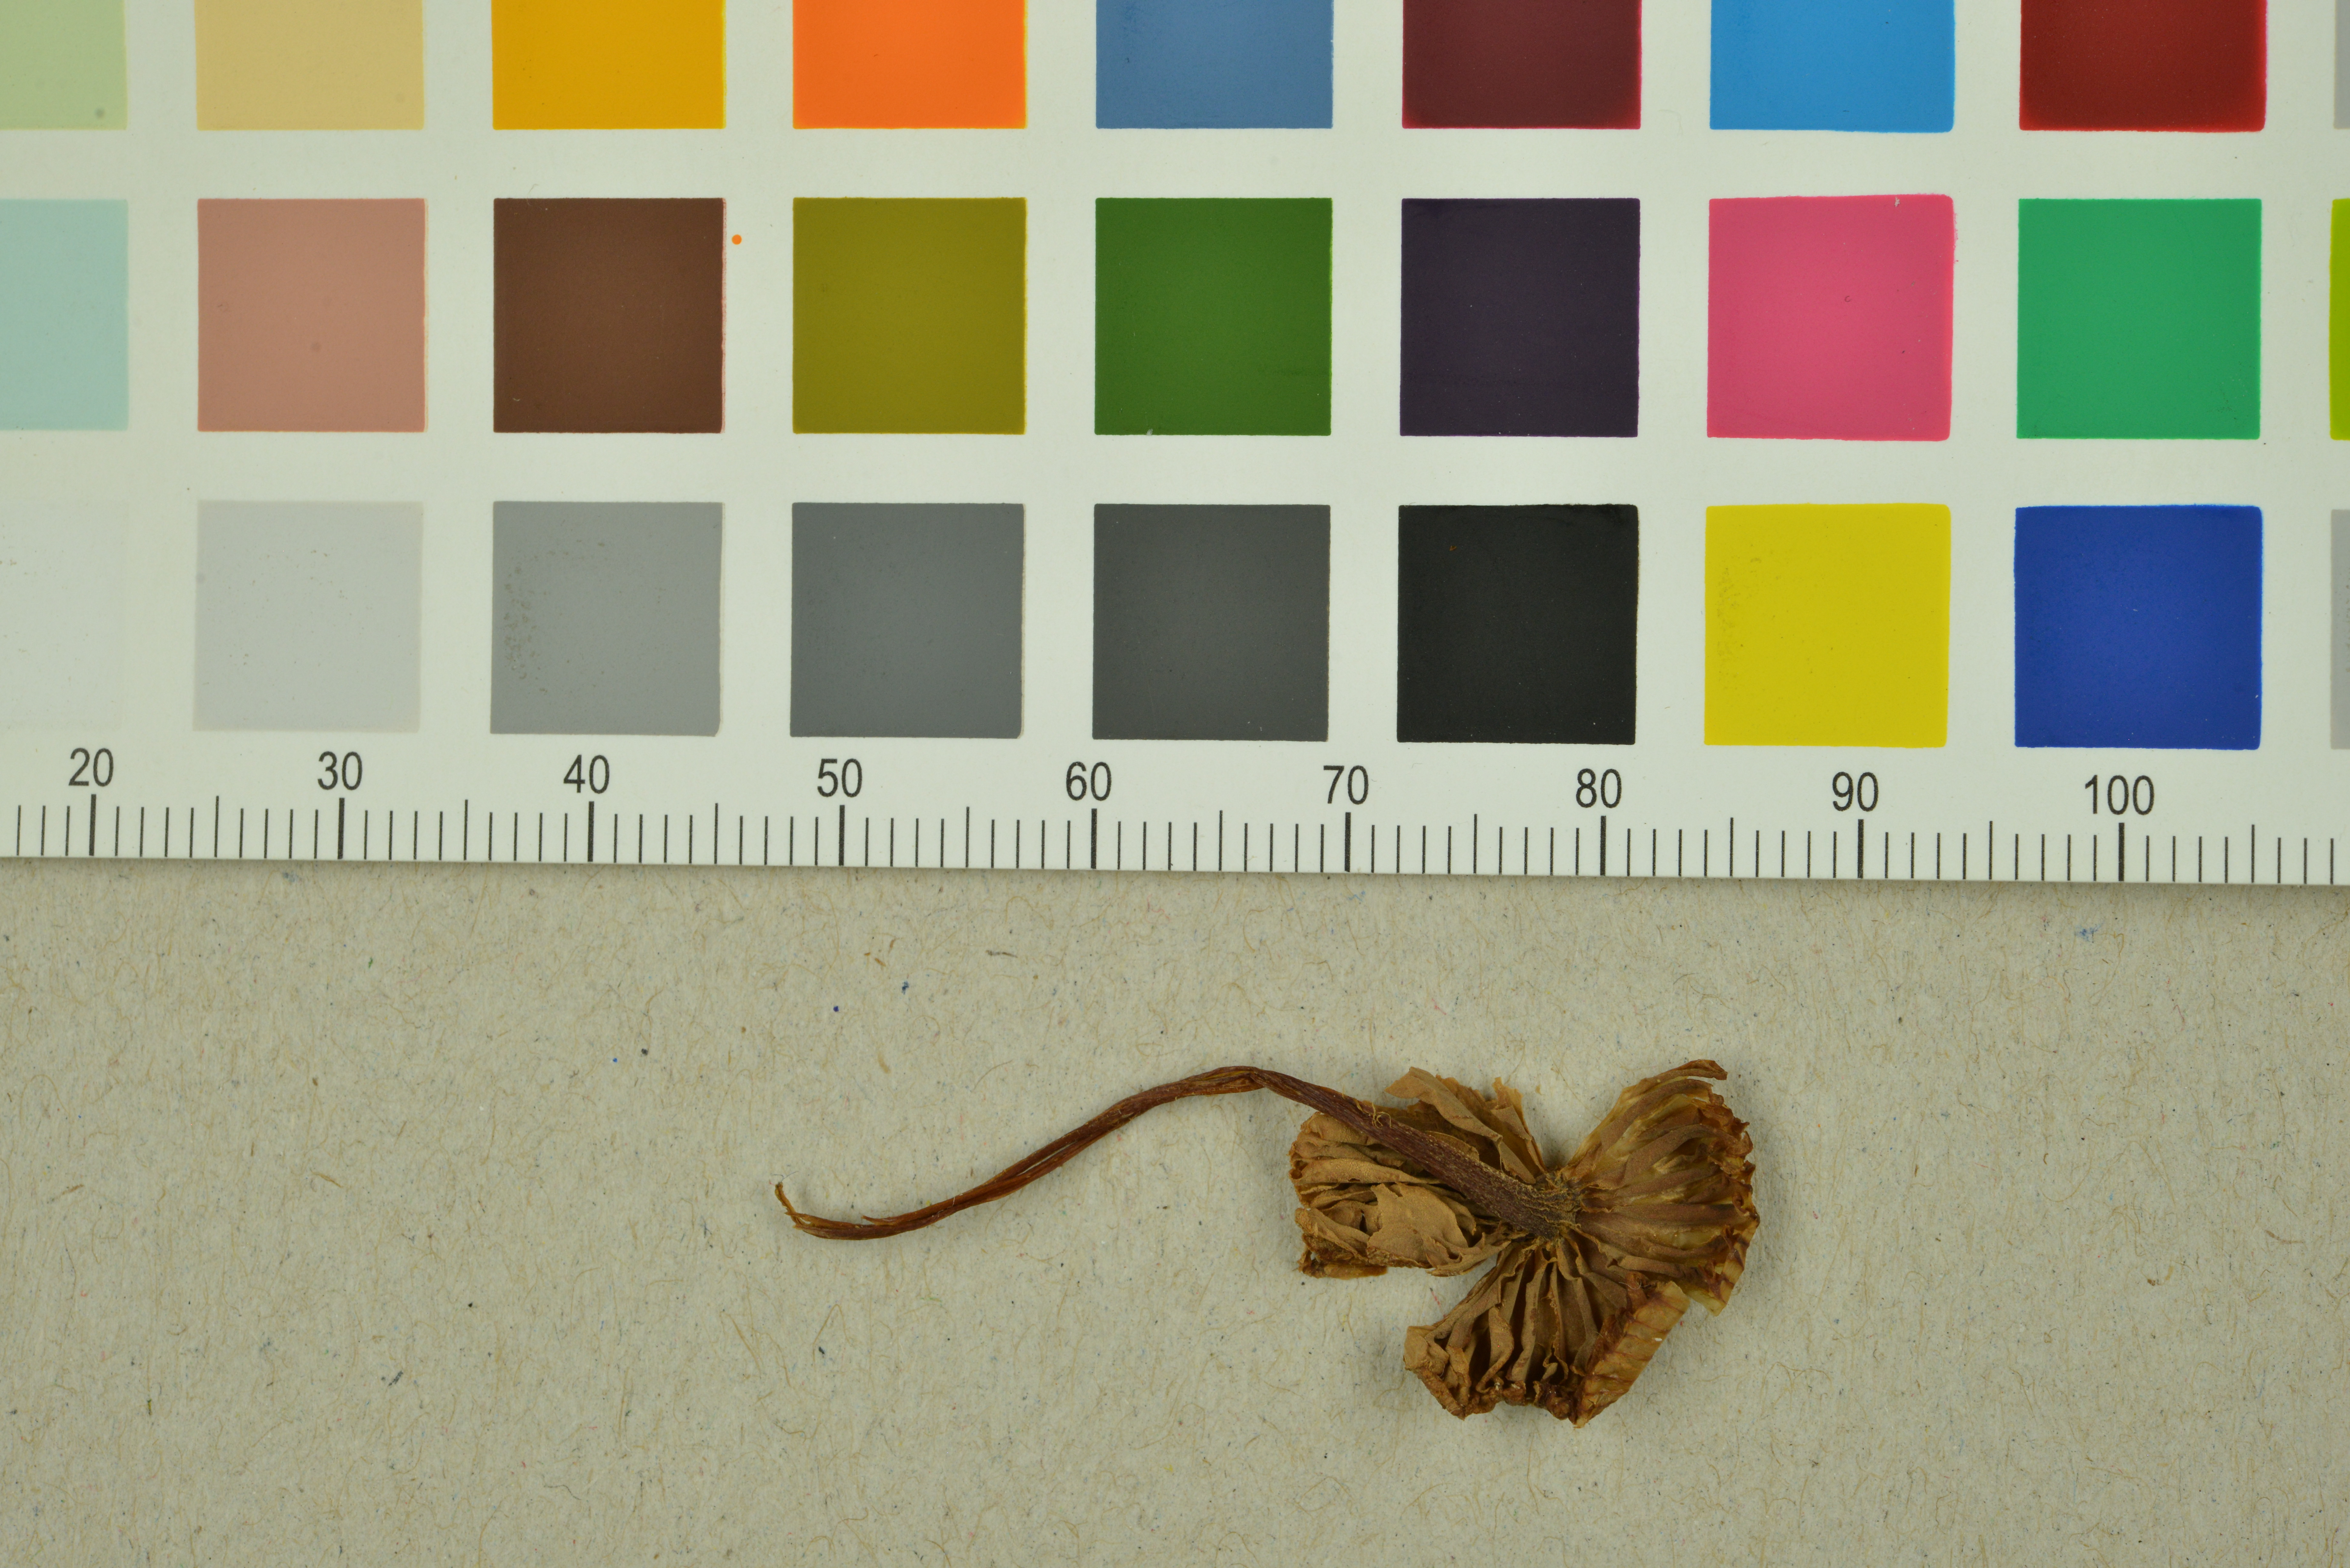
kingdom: Fungi
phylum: Basidiomycota
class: Agaricomycetes
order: Agaricales
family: Entolomataceae
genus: Entoloma
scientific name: Entoloma
